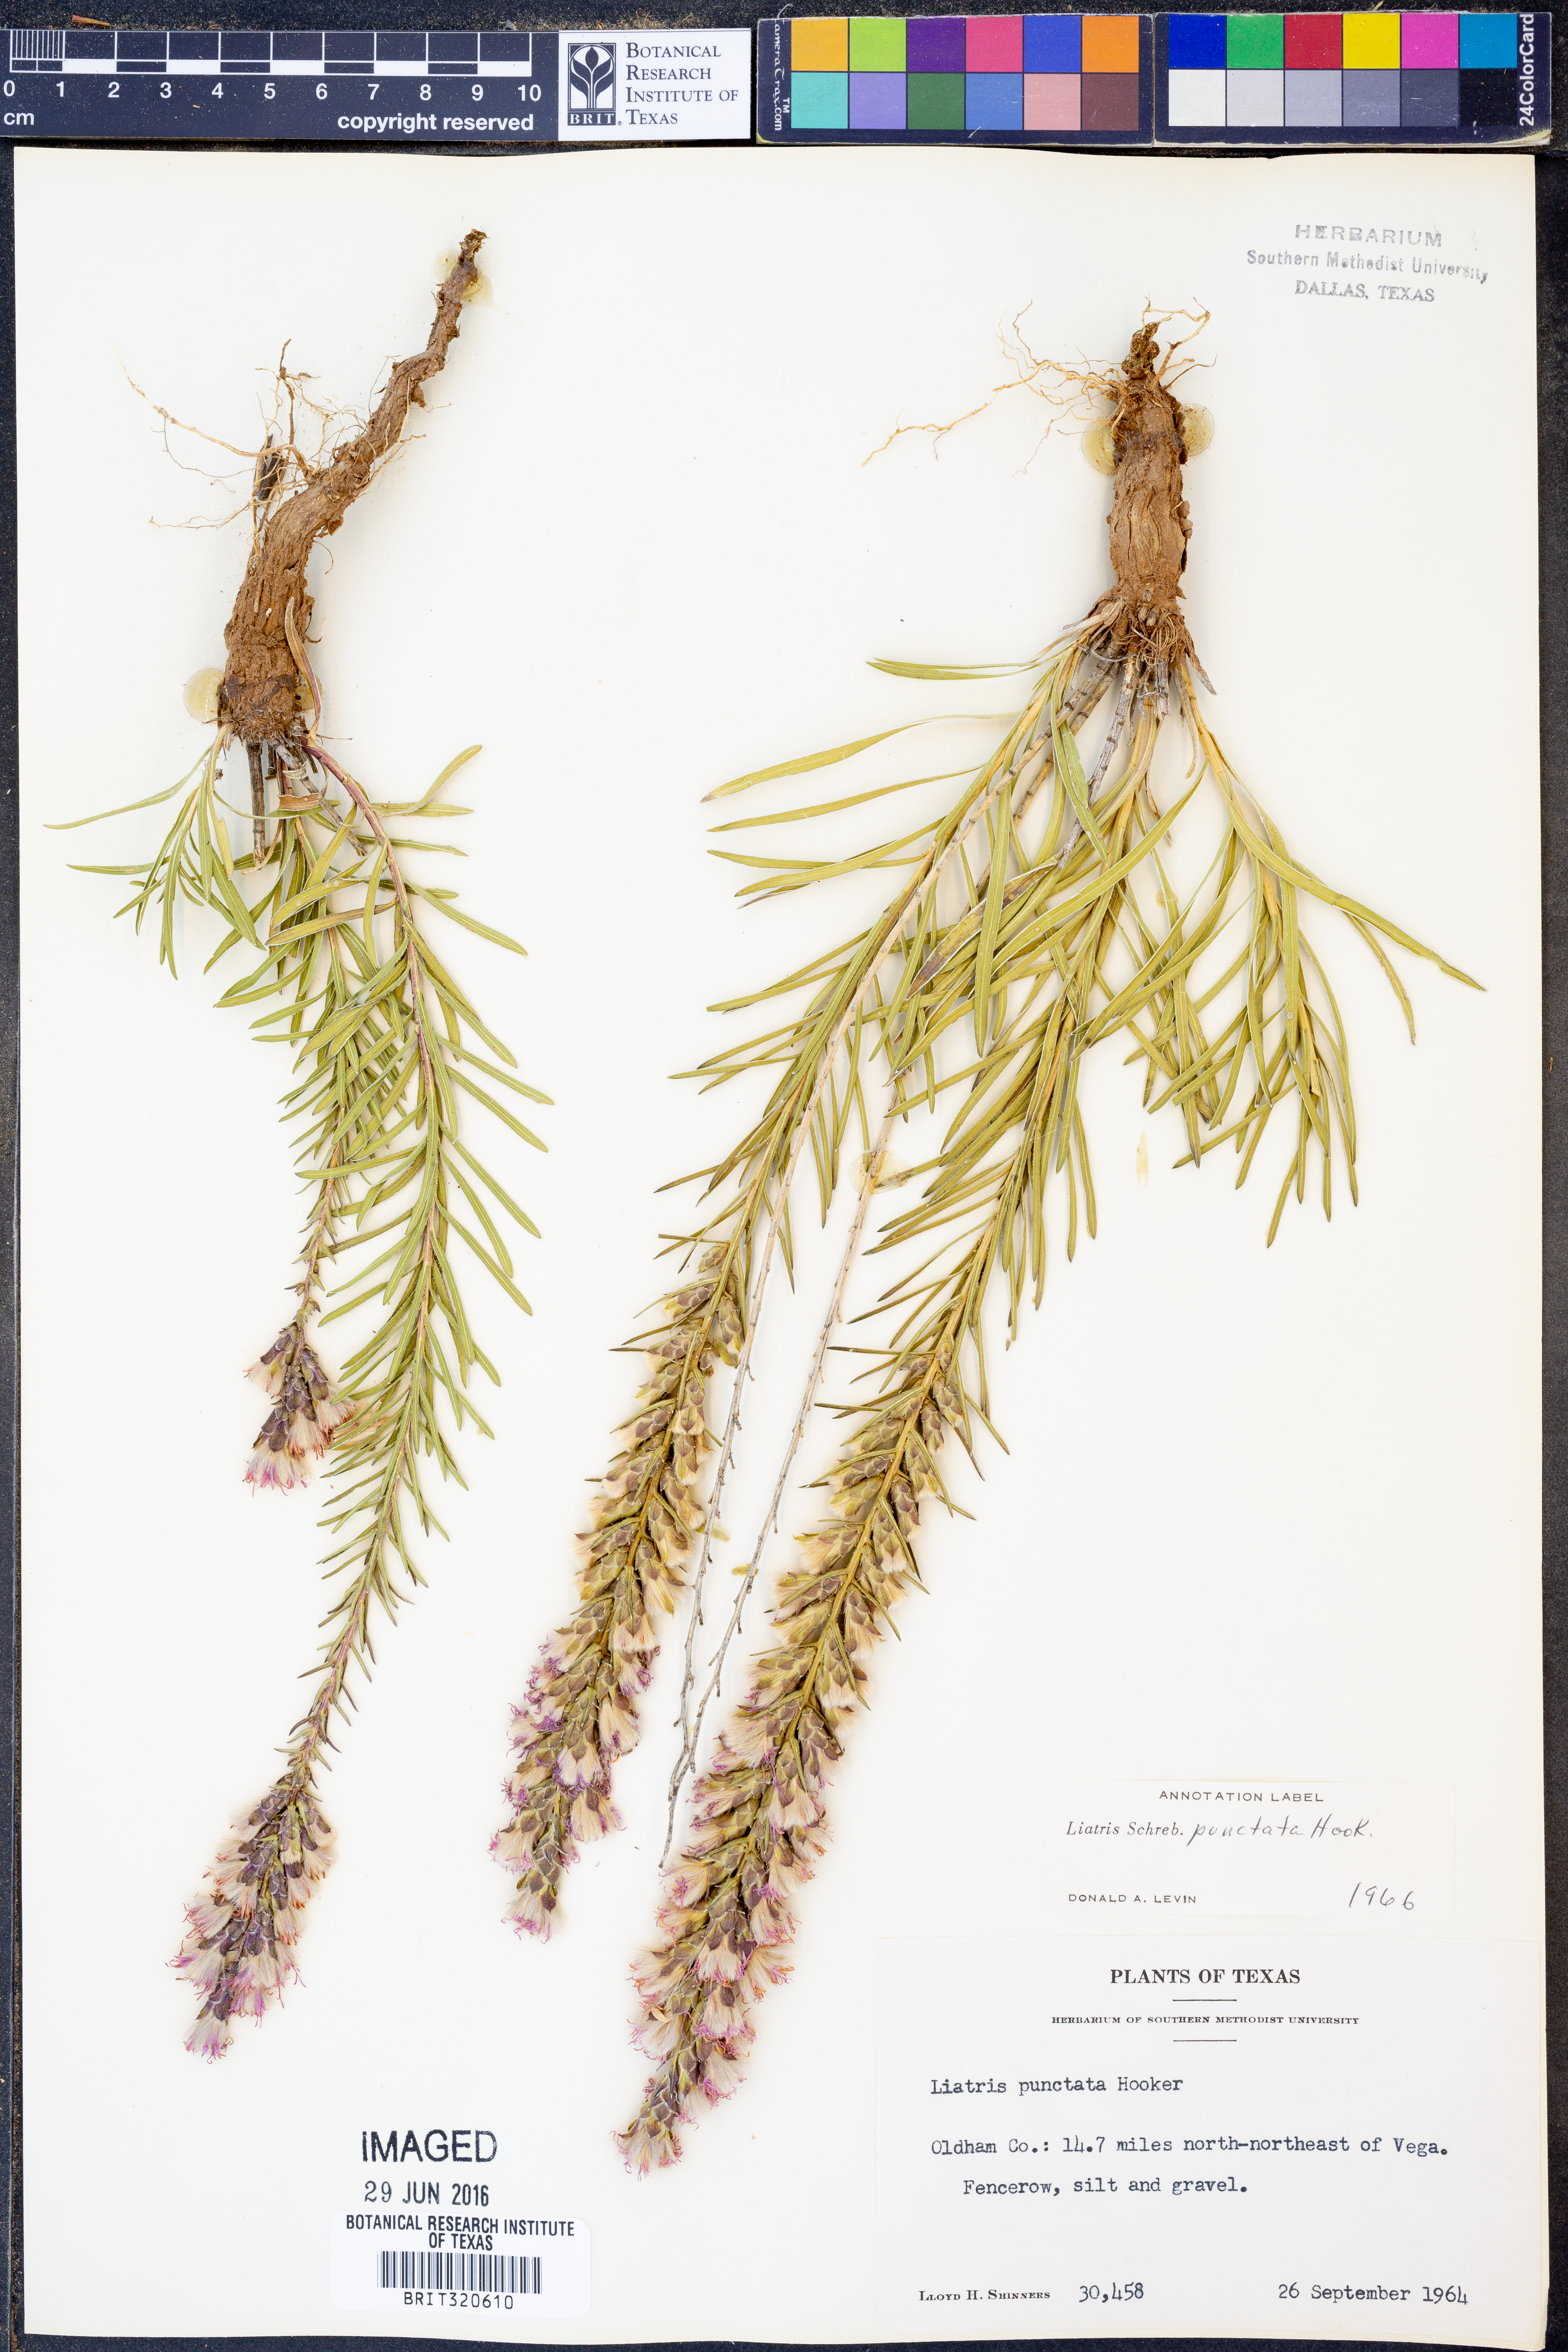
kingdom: Plantae
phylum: Tracheophyta
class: Magnoliopsida
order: Asterales
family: Asteraceae
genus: Liatris
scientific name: Liatris punctata
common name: Dotted gayfeather
